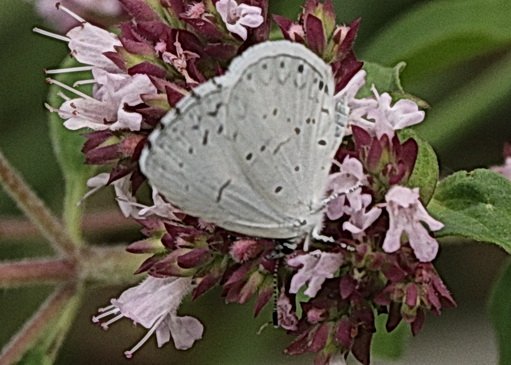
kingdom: Animalia
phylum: Arthropoda
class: Insecta
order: Lepidoptera
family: Lycaenidae
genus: Cyaniris
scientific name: Cyaniris neglecta
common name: Summer Azure
